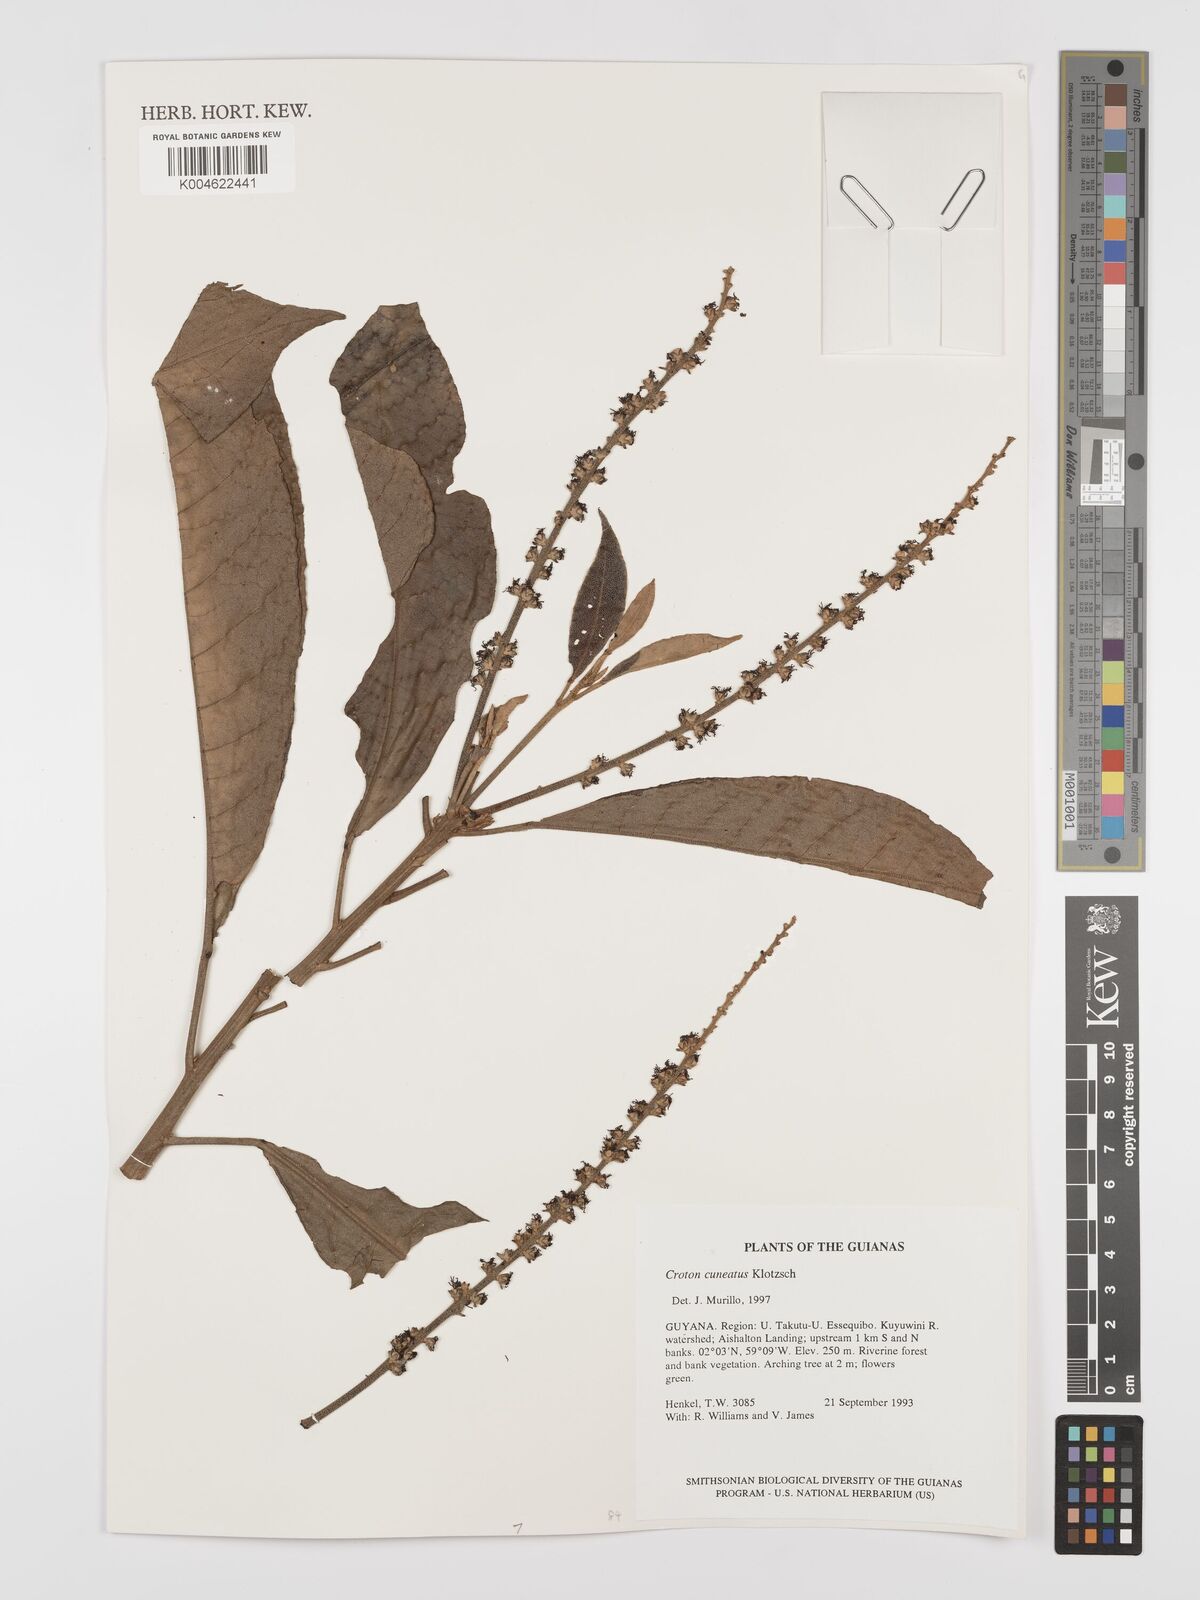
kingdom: Plantae
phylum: Tracheophyta
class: Magnoliopsida
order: Malpighiales
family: Euphorbiaceae
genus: Croton
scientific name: Croton
